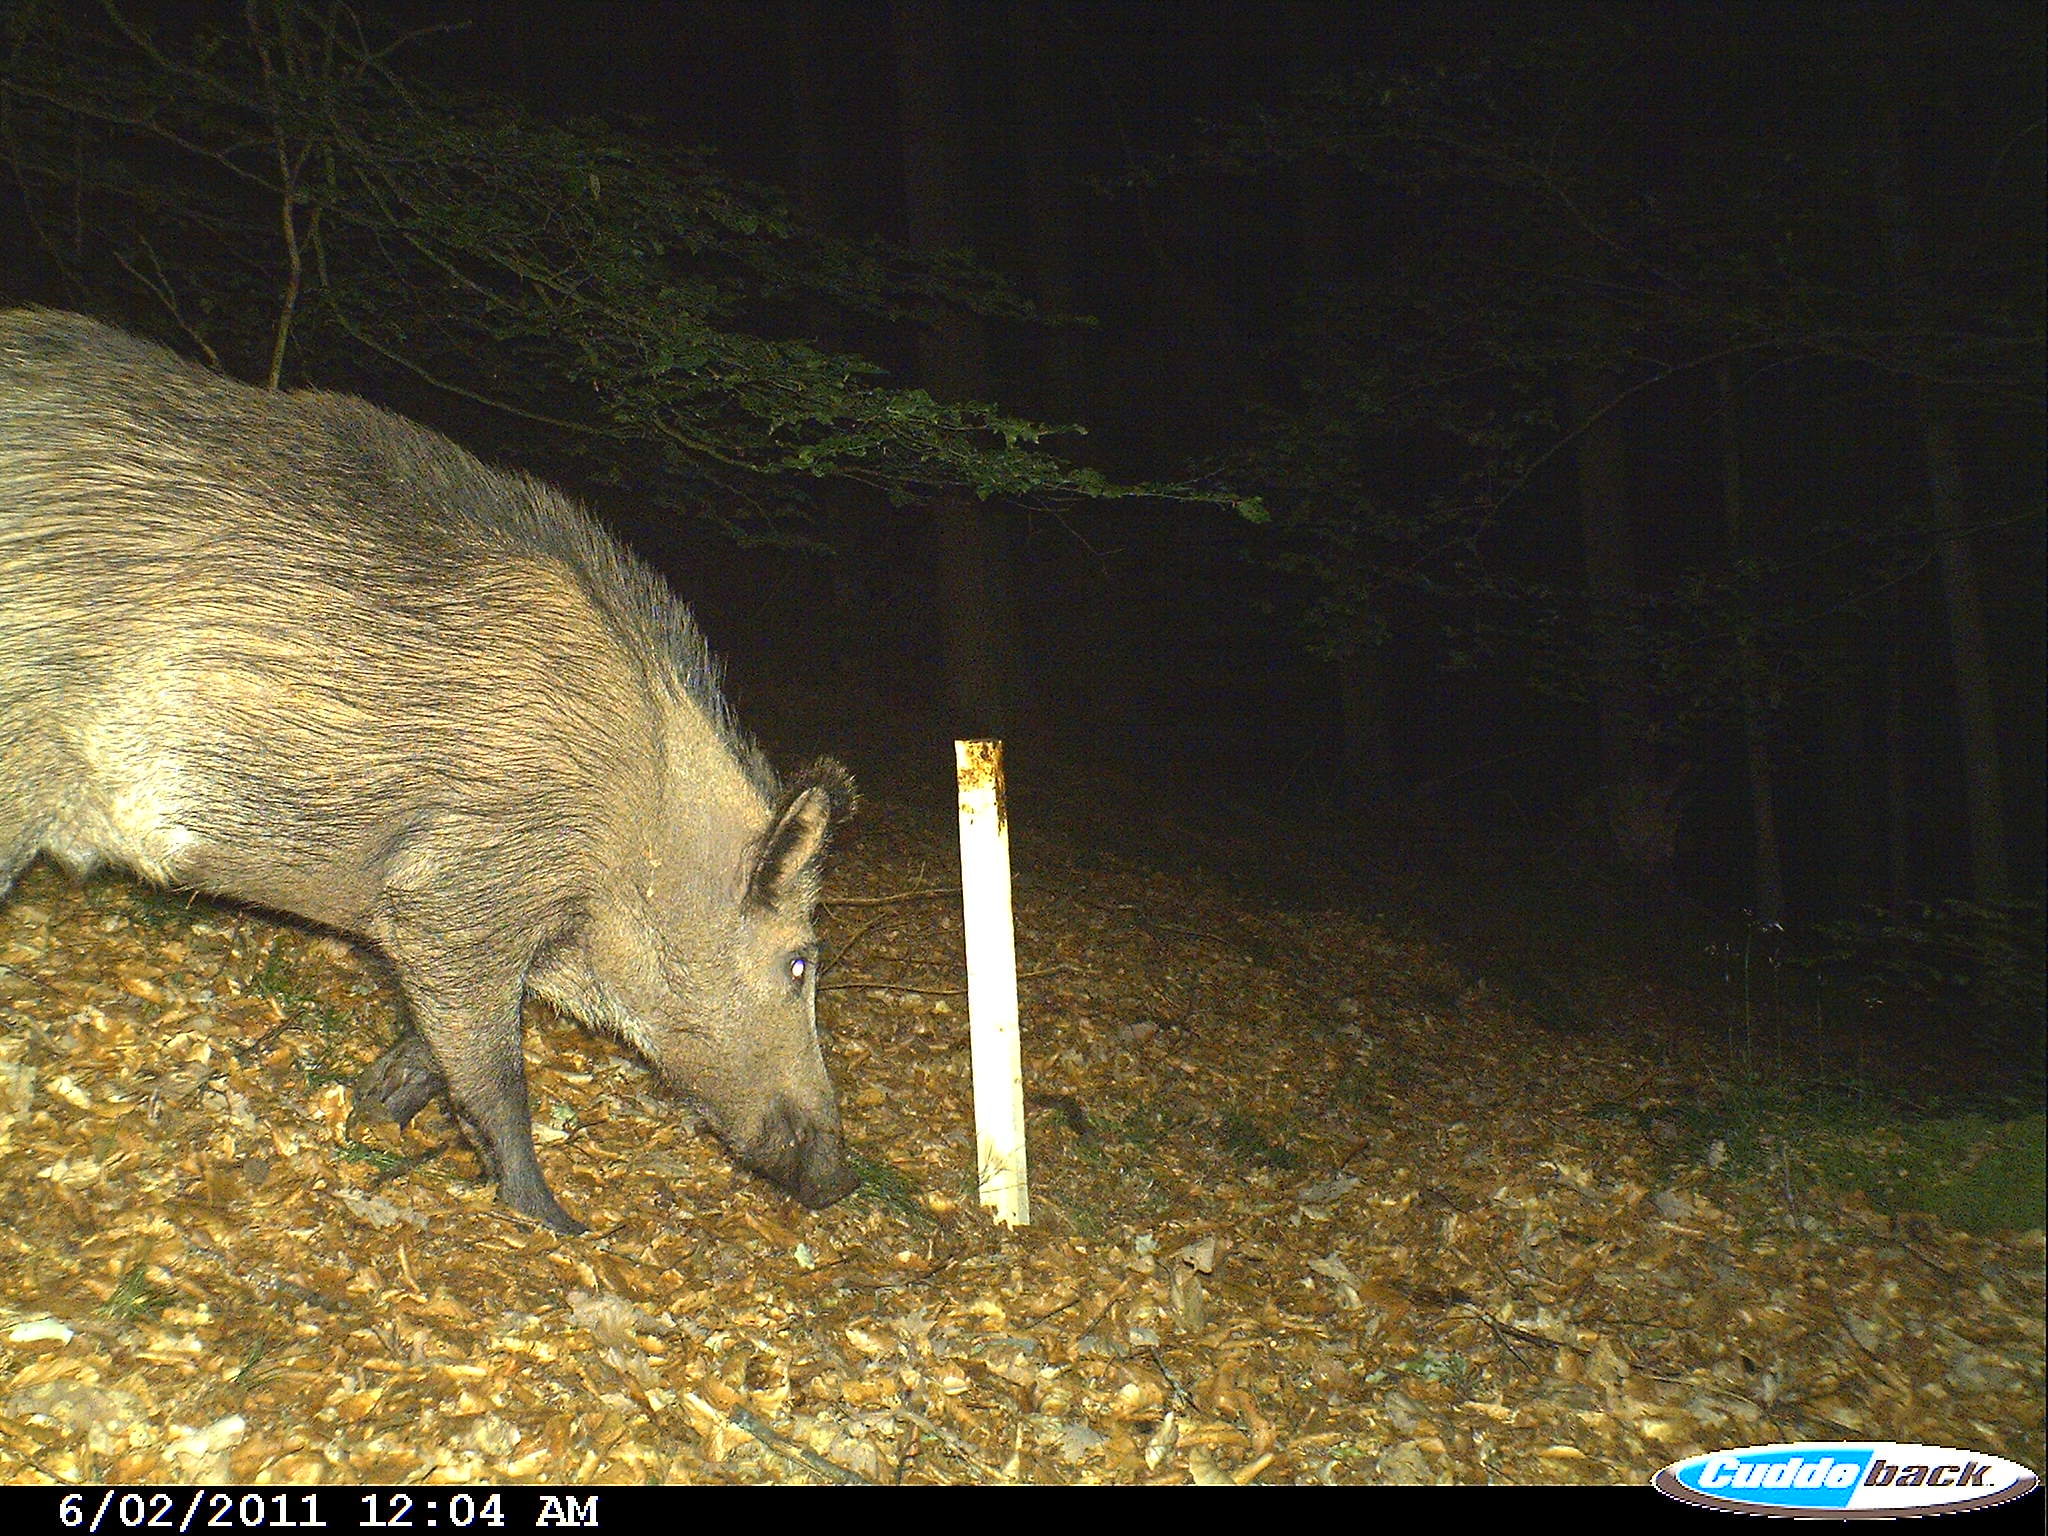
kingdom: Animalia
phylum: Chordata
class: Mammalia
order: Artiodactyla
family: Suidae
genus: Sus
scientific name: Sus scrofa
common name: Wild boar
